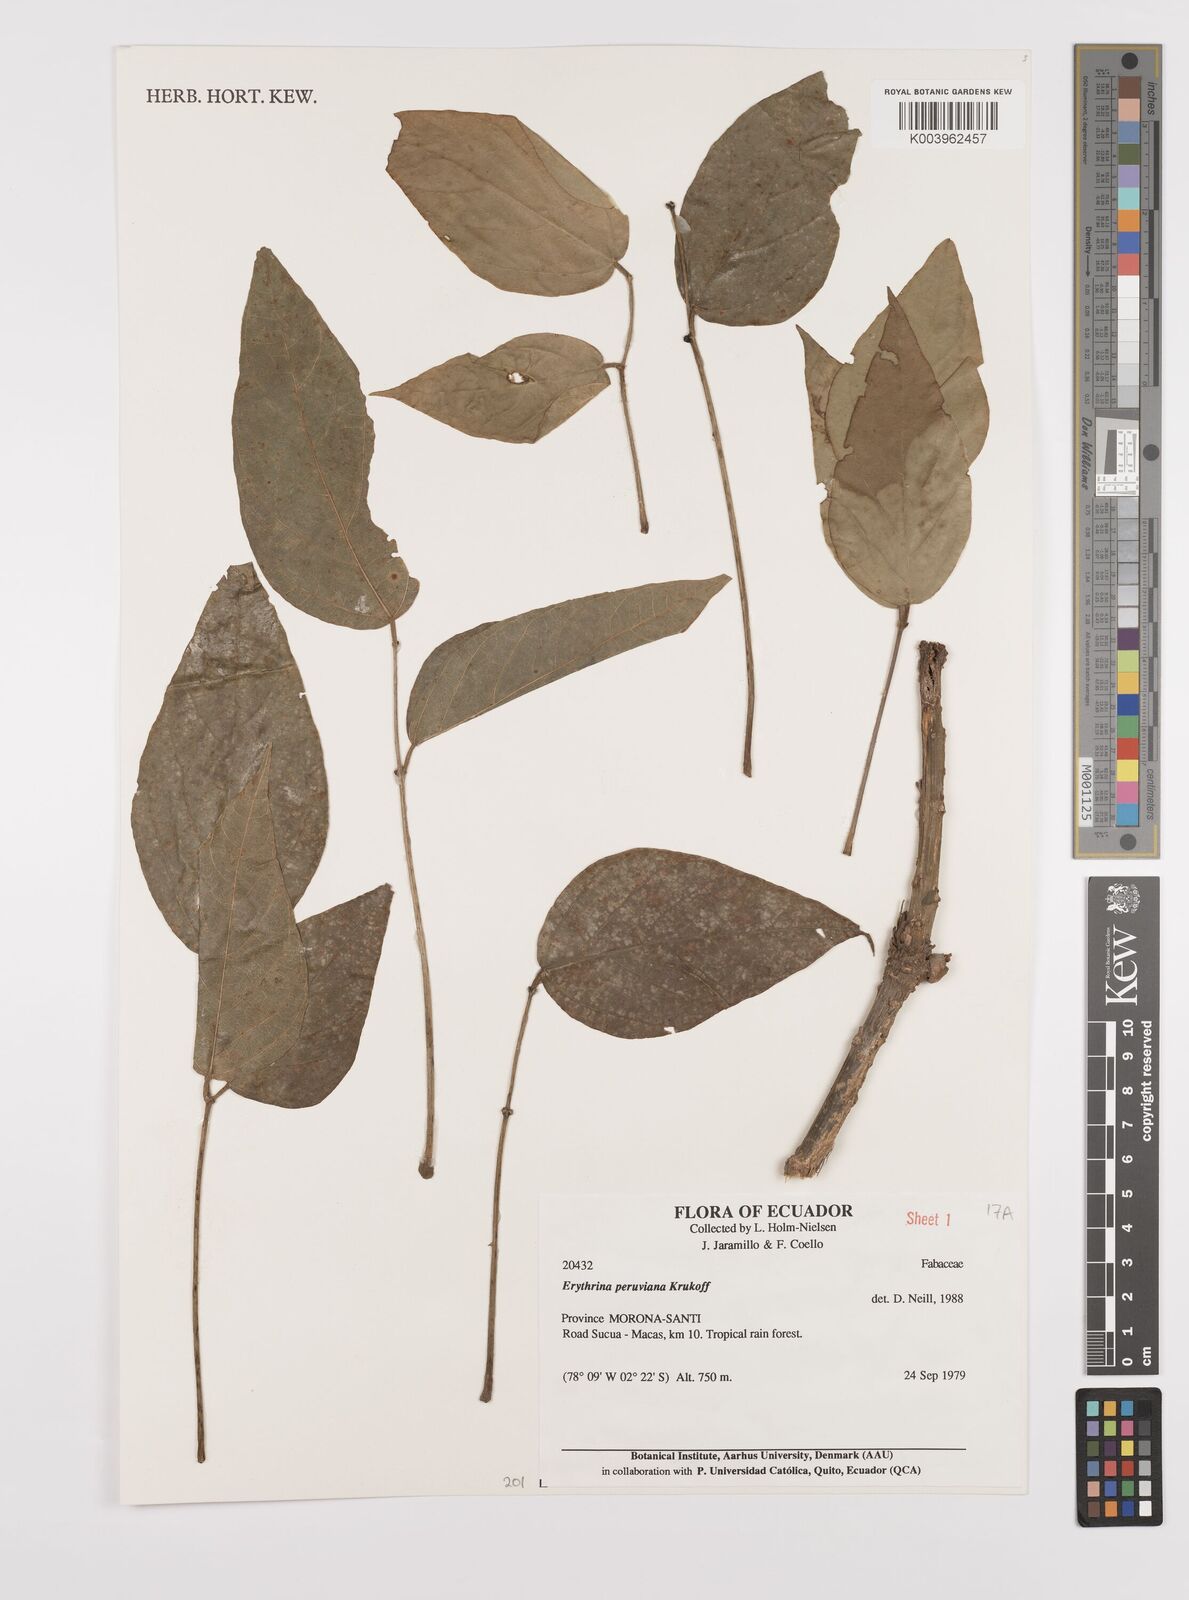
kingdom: Plantae
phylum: Tracheophyta
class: Magnoliopsida
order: Fabales
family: Fabaceae
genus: Erythrina
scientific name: Erythrina peruviana
